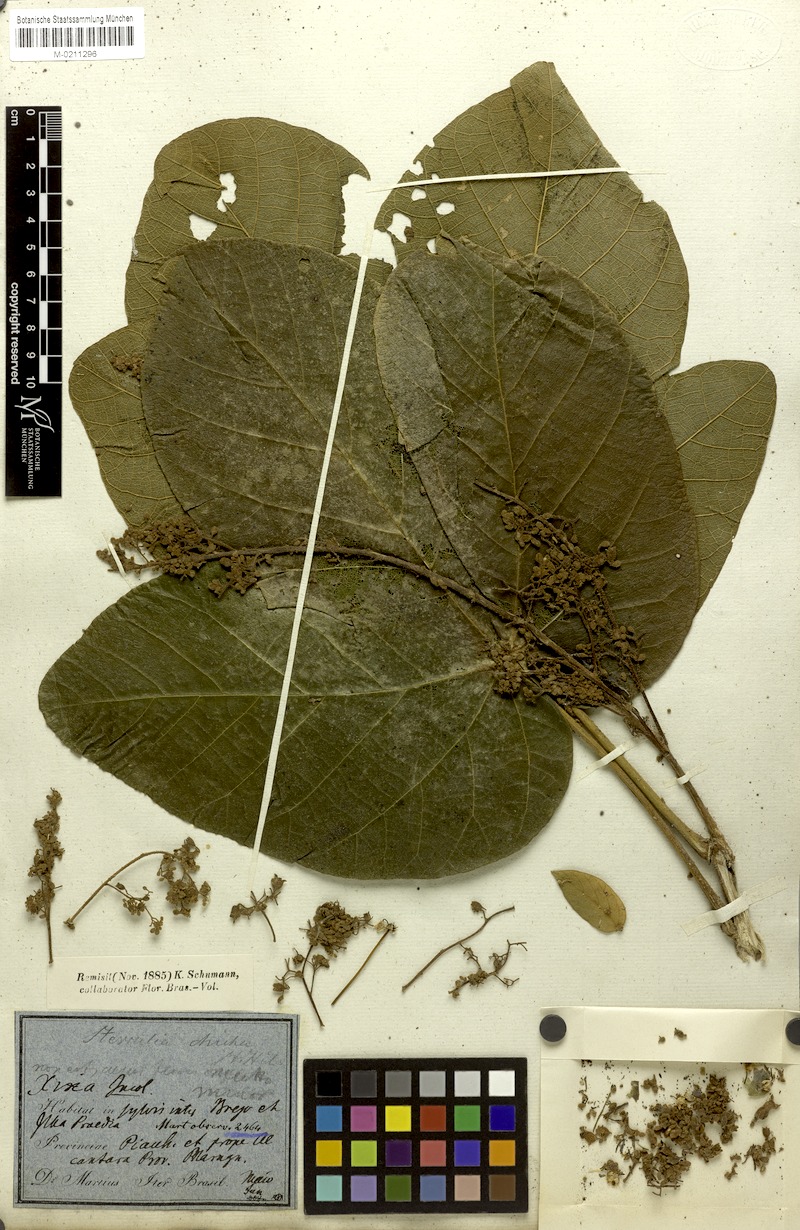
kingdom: Plantae
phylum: Tracheophyta
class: Magnoliopsida
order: Malvales
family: Malvaceae
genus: Sterculia
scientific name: Sterculia striata
